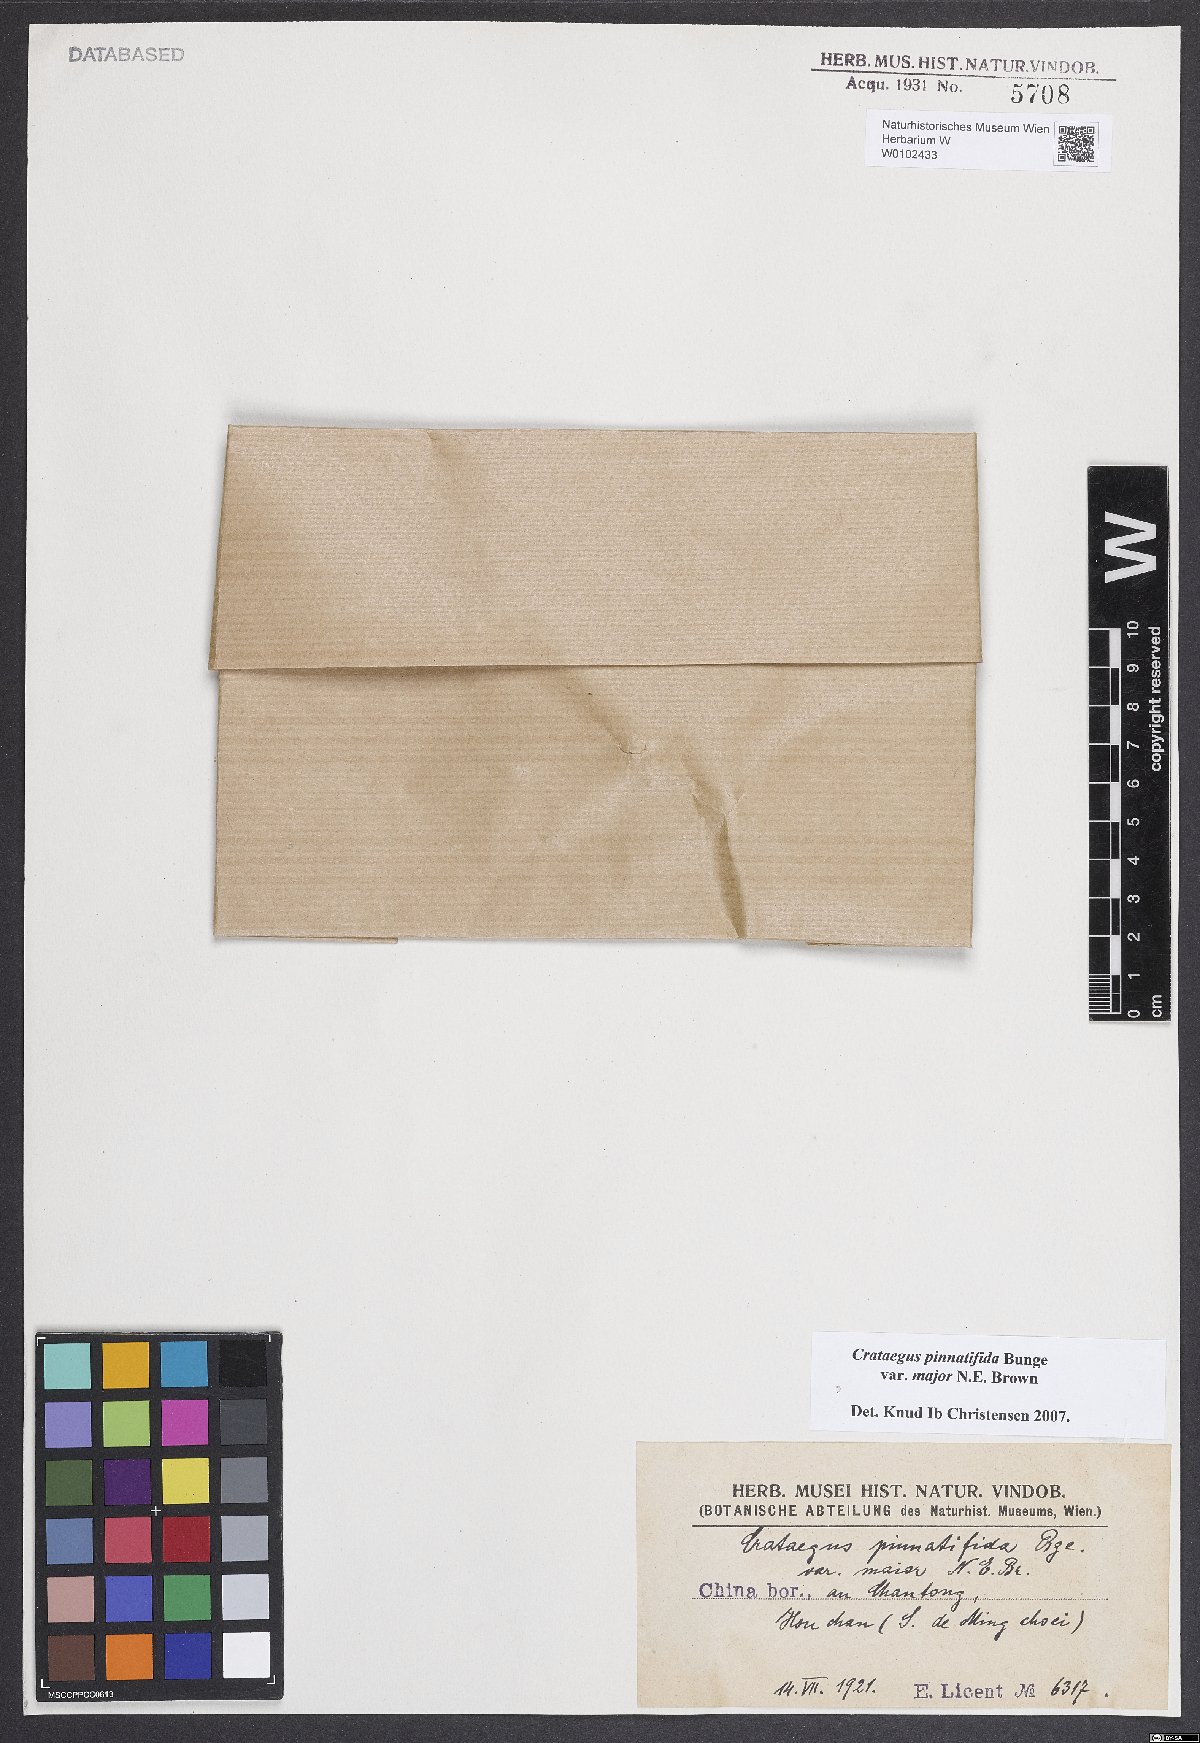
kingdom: Plantae
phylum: Tracheophyta
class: Magnoliopsida
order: Rosales
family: Rosaceae
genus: Crataegus
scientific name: Crataegus pinnatifida
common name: Chinese haw
